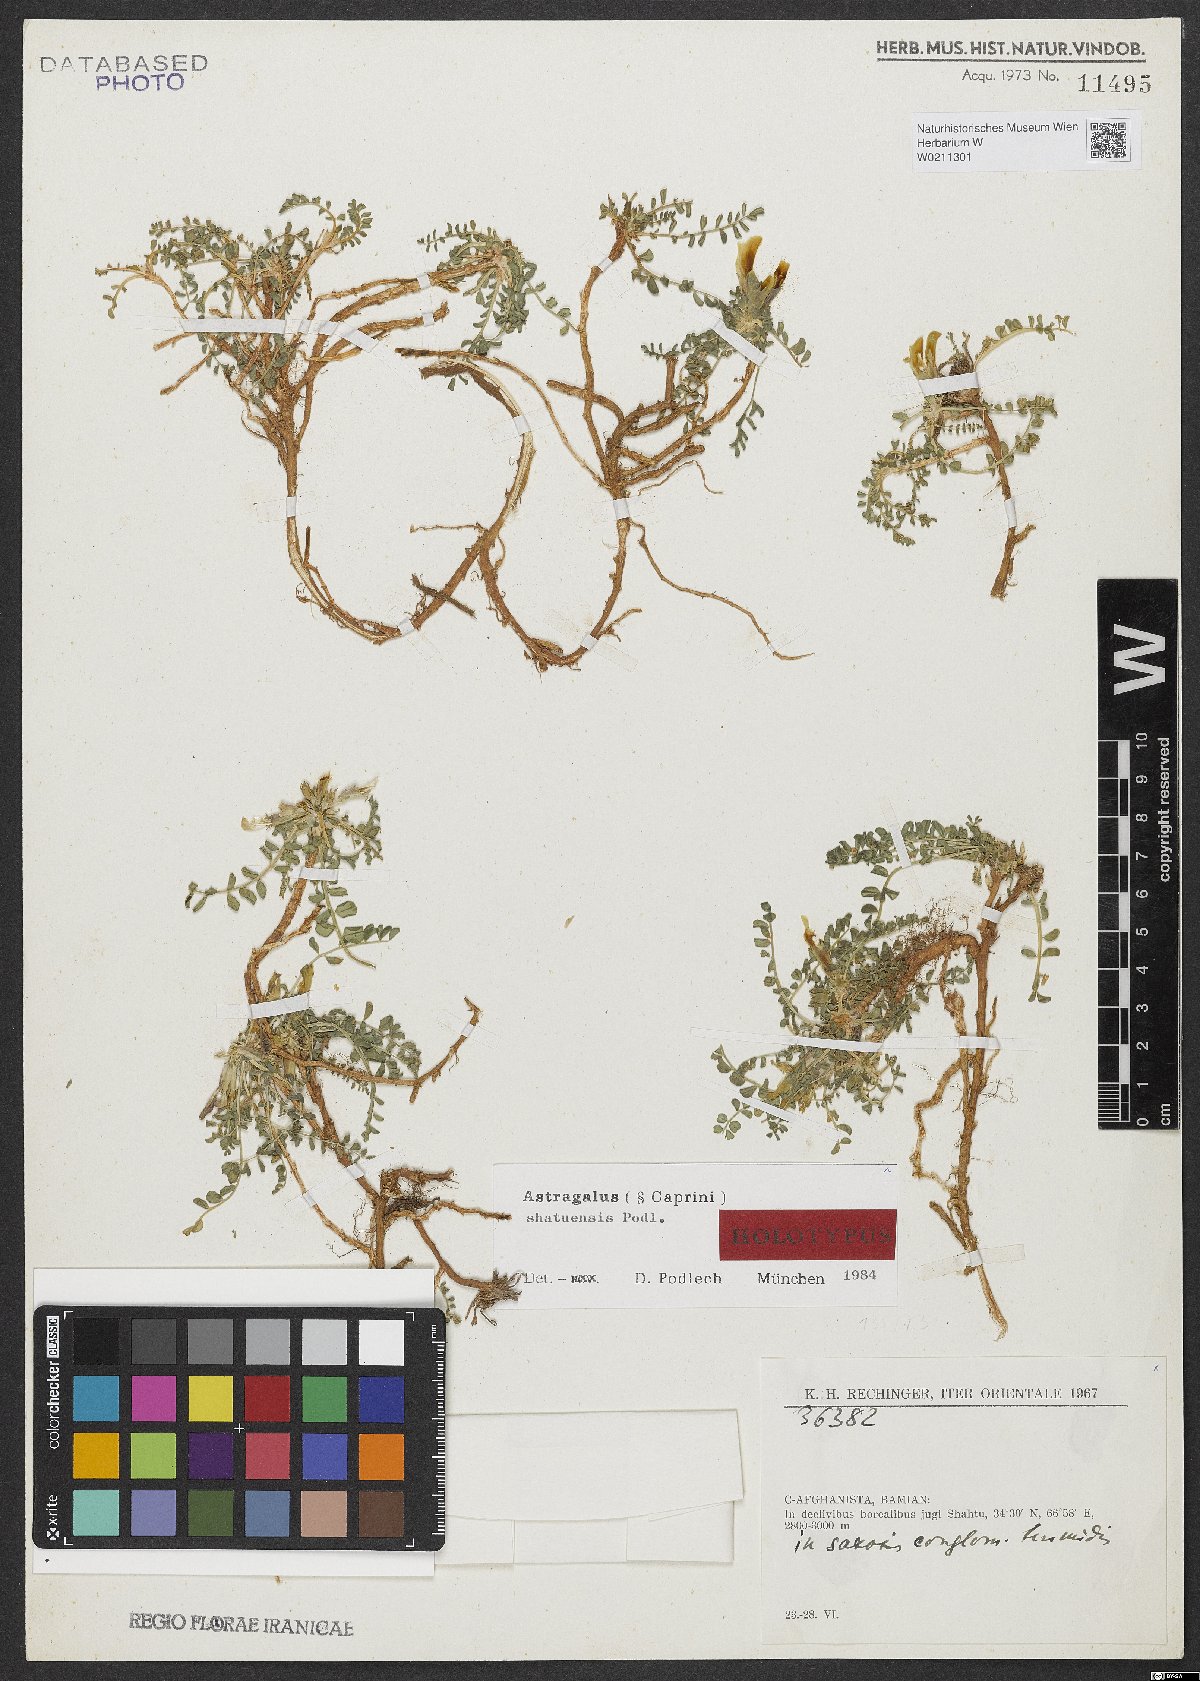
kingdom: Plantae
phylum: Tracheophyta
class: Magnoliopsida
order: Fabales
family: Fabaceae
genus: Astragalus
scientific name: Astragalus shatuensis
